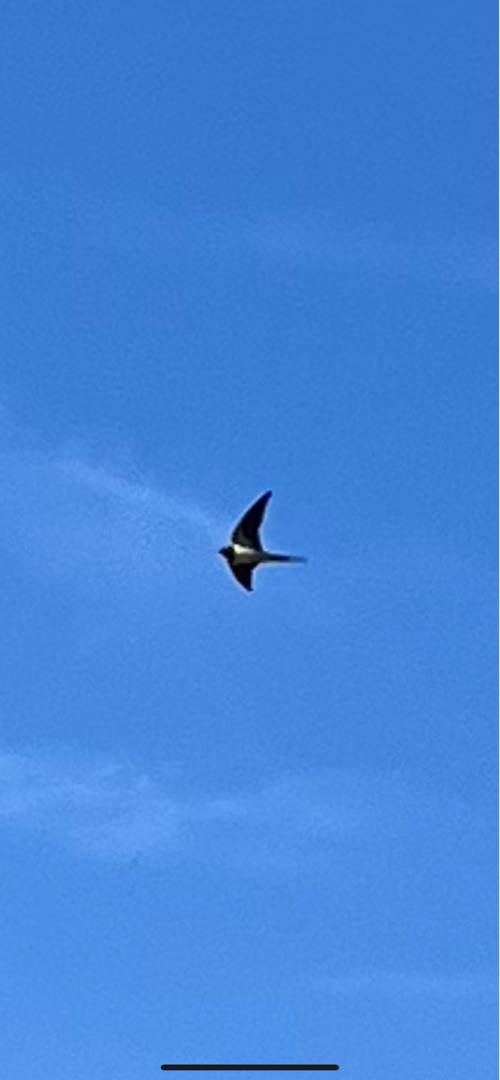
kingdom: Animalia
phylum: Chordata
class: Aves
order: Passeriformes
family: Hirundinidae
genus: Hirundo
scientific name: Hirundo rustica
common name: Landsvale
